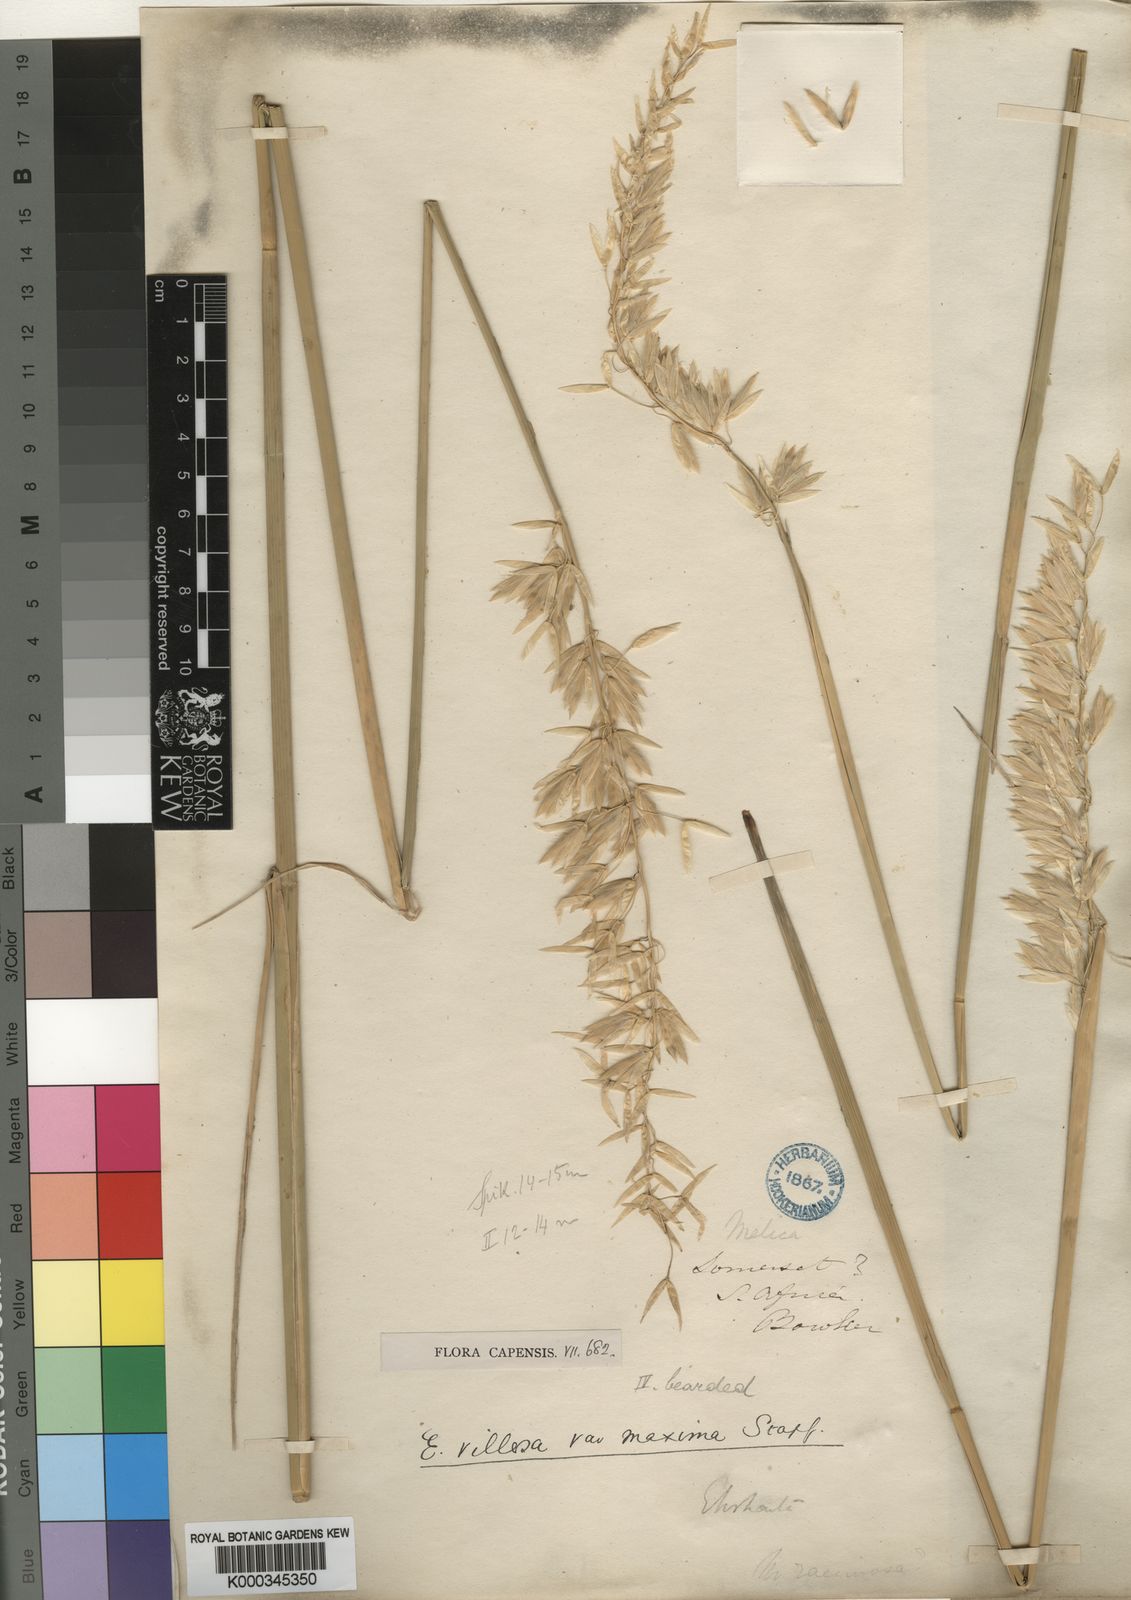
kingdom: Plantae
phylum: Tracheophyta
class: Liliopsida
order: Poales
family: Poaceae
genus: Ehrharta
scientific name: Ehrharta villosa
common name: Pyp grass
